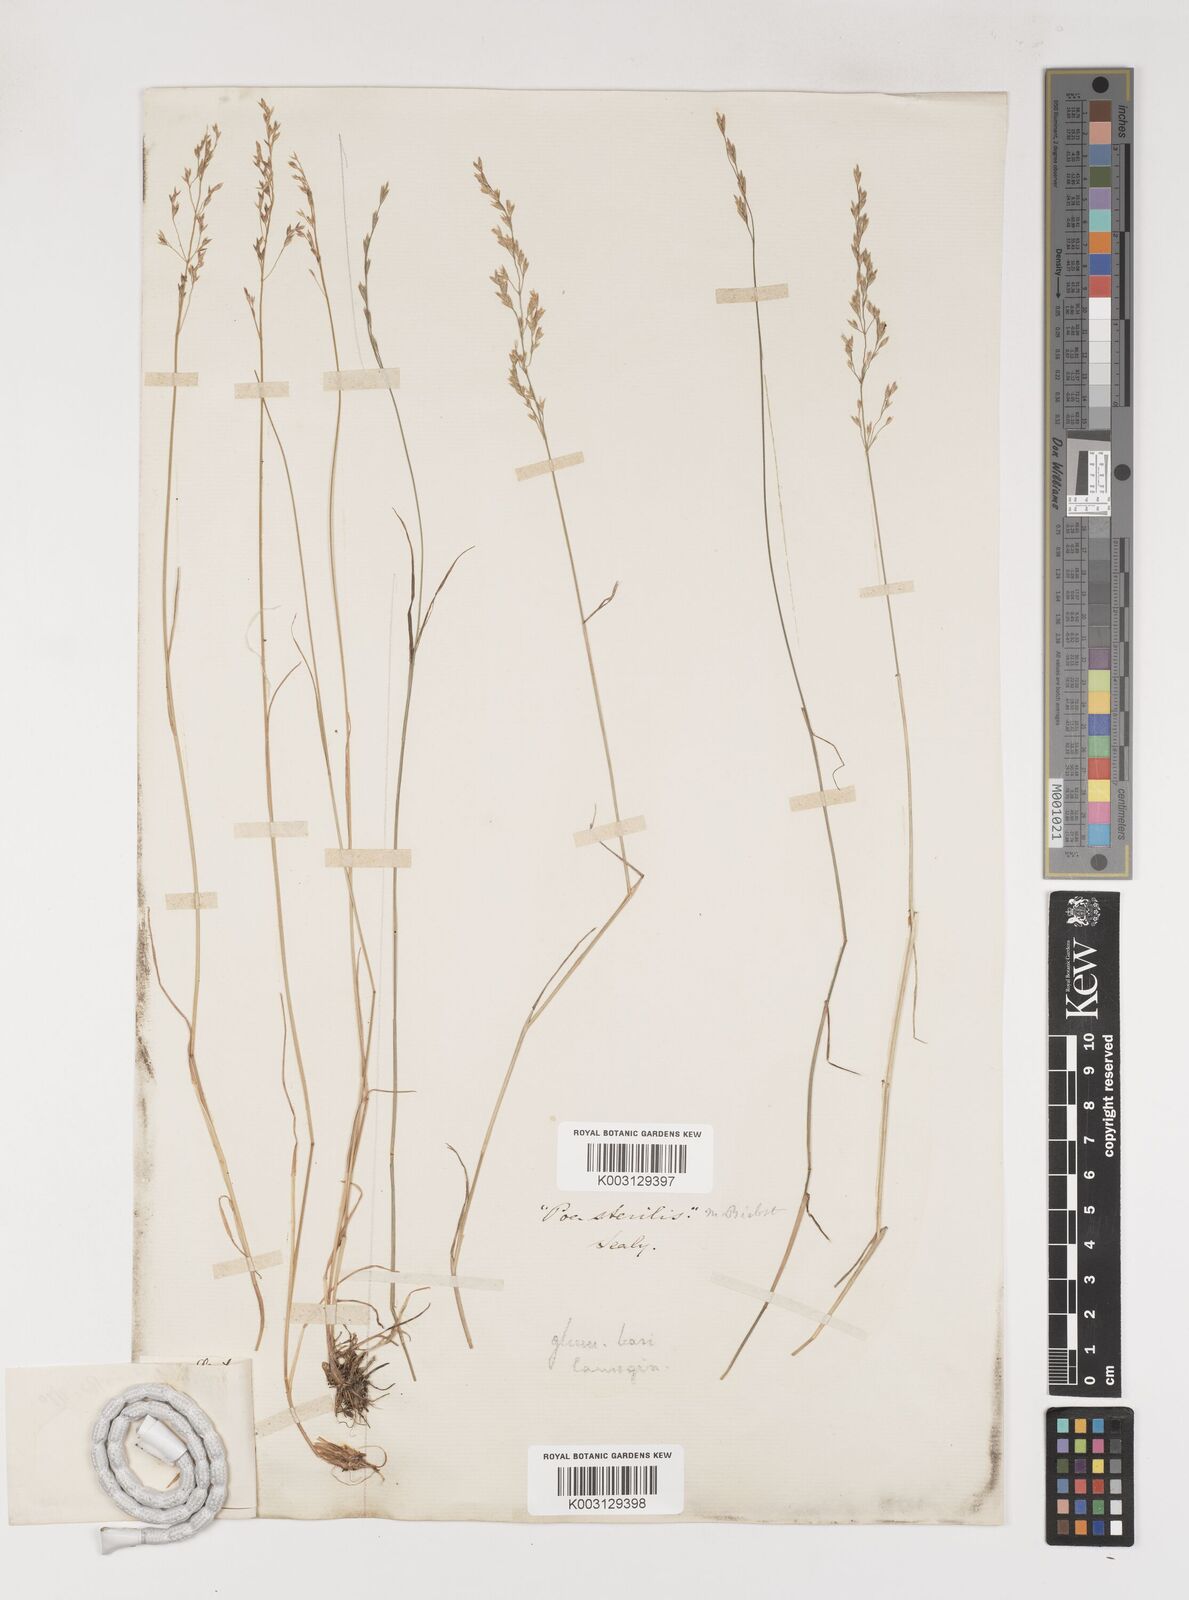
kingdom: Plantae
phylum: Tracheophyta
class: Liliopsida
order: Poales
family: Poaceae
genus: Poa
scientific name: Poa sterilis
